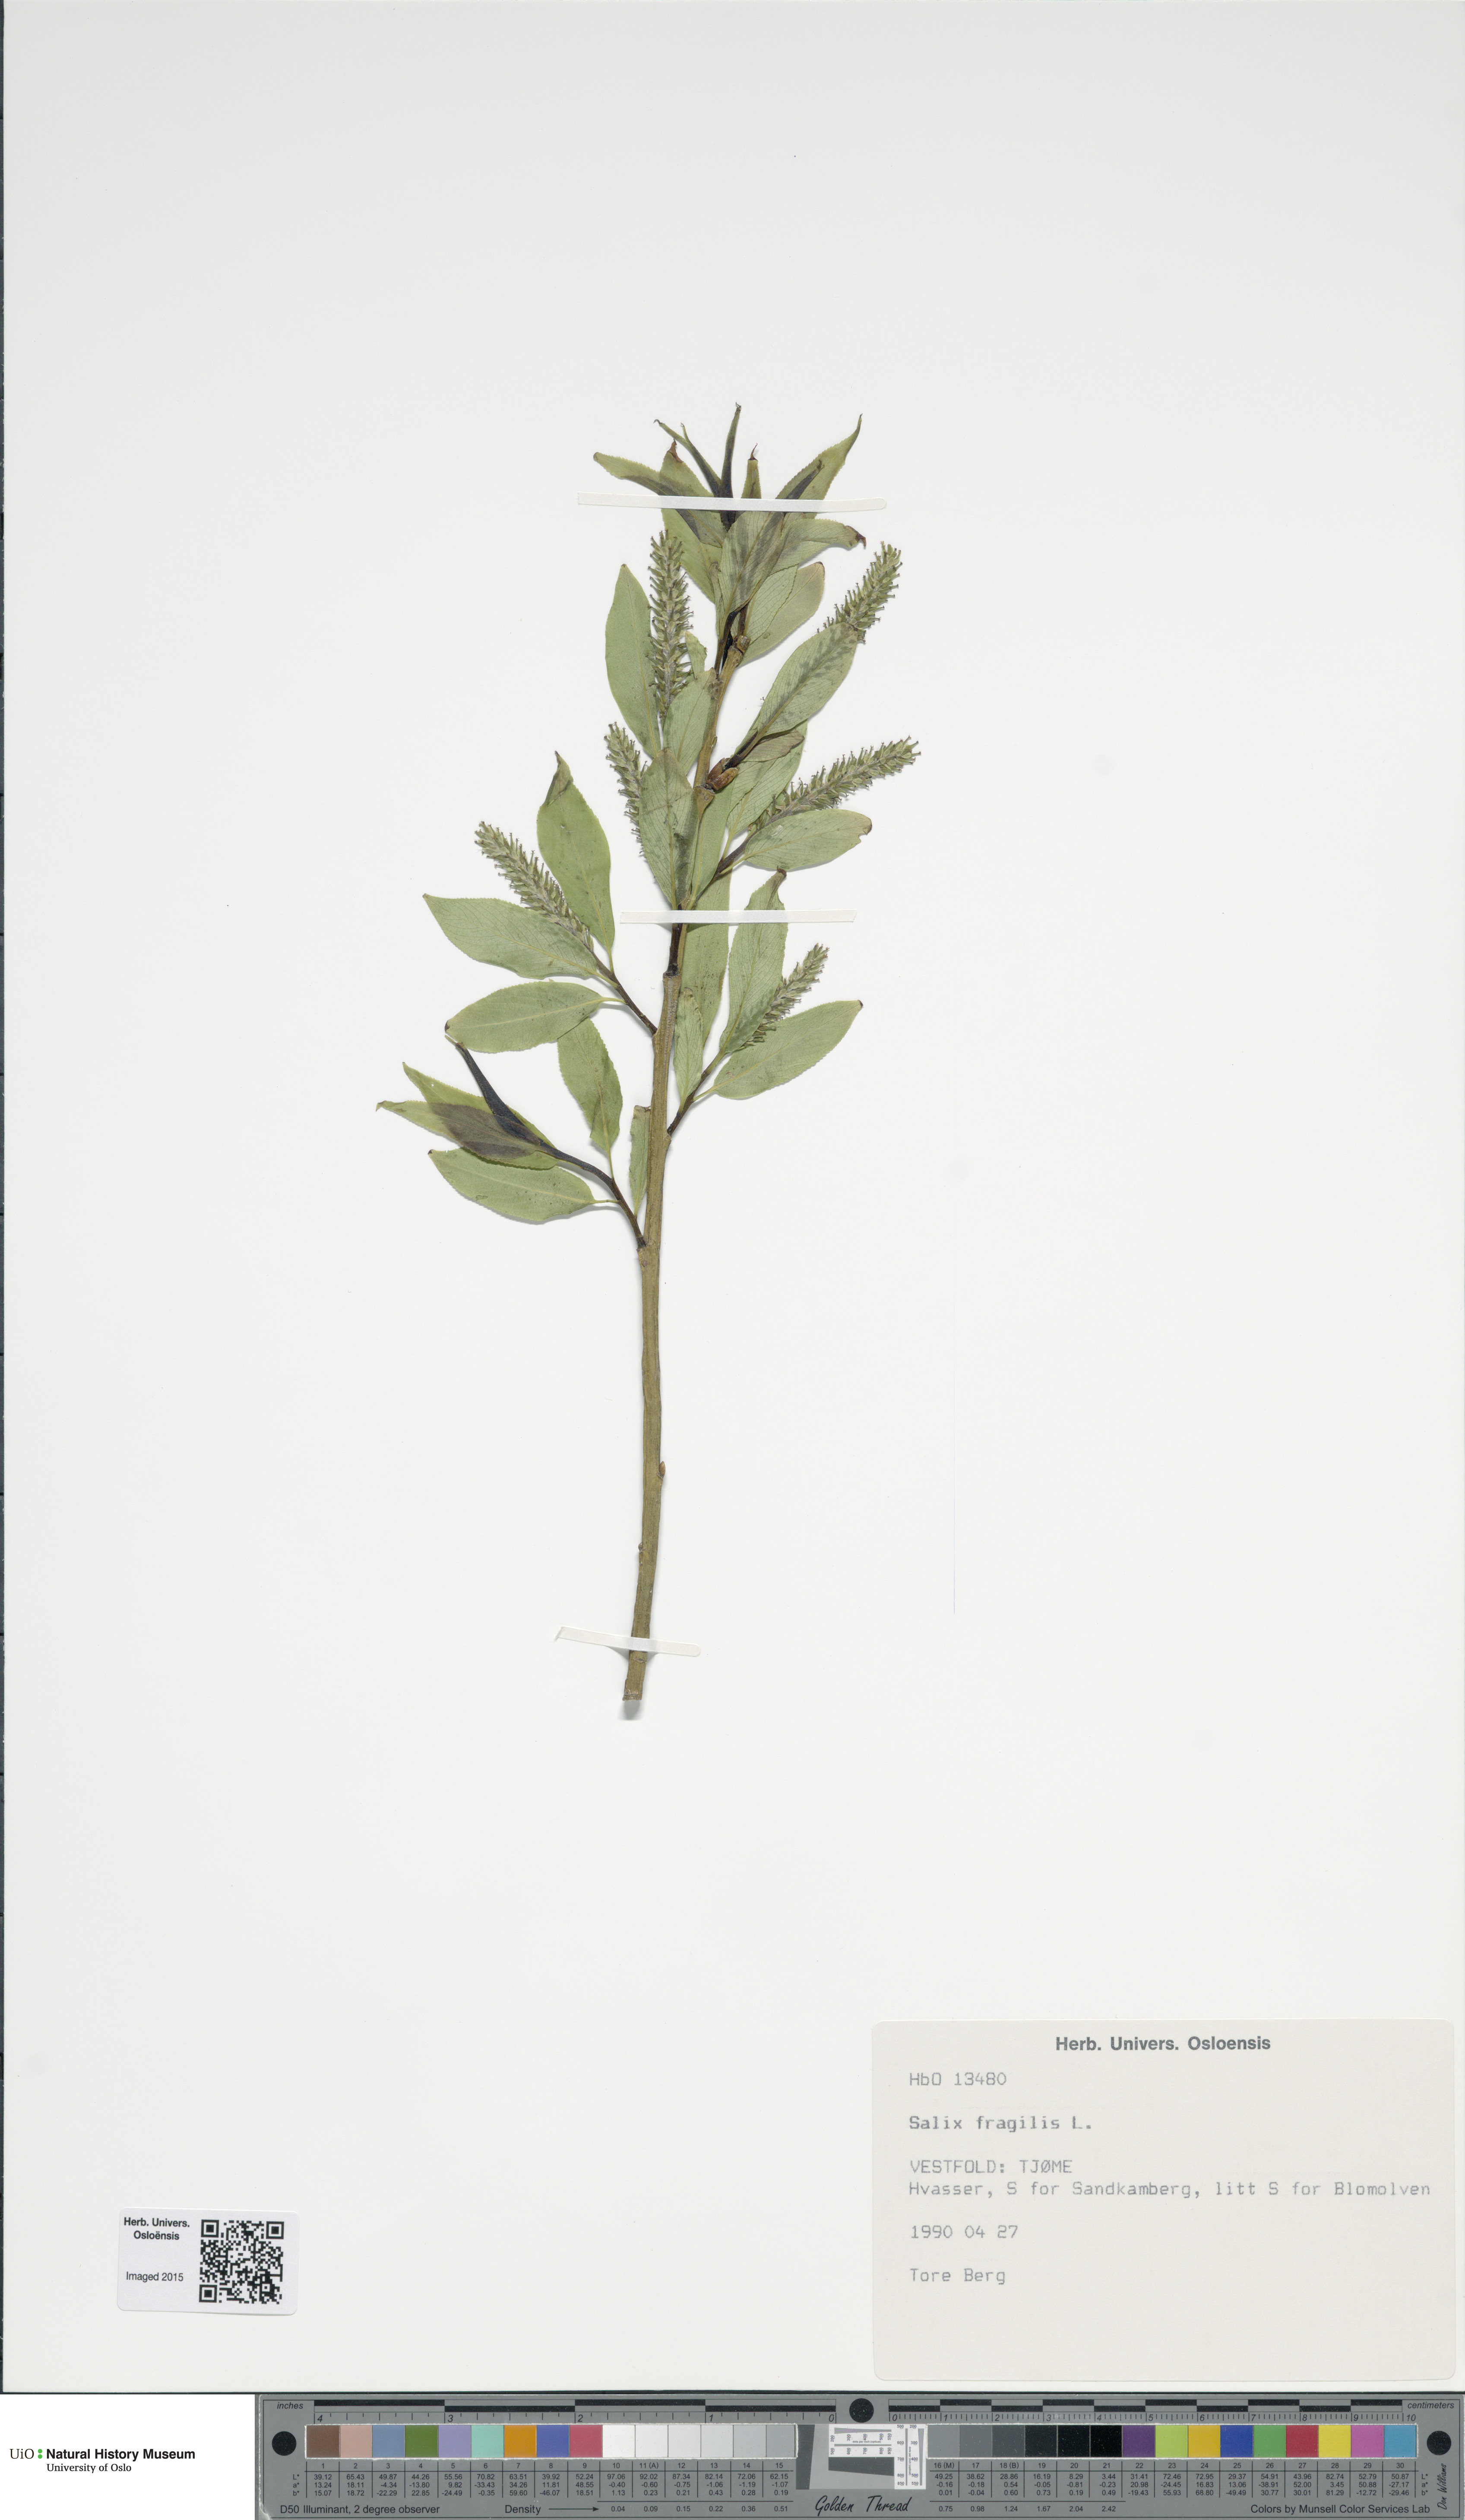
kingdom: Plantae
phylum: Tracheophyta
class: Magnoliopsida
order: Malpighiales
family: Salicaceae
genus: Salix
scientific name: Salix alba
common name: White willow
